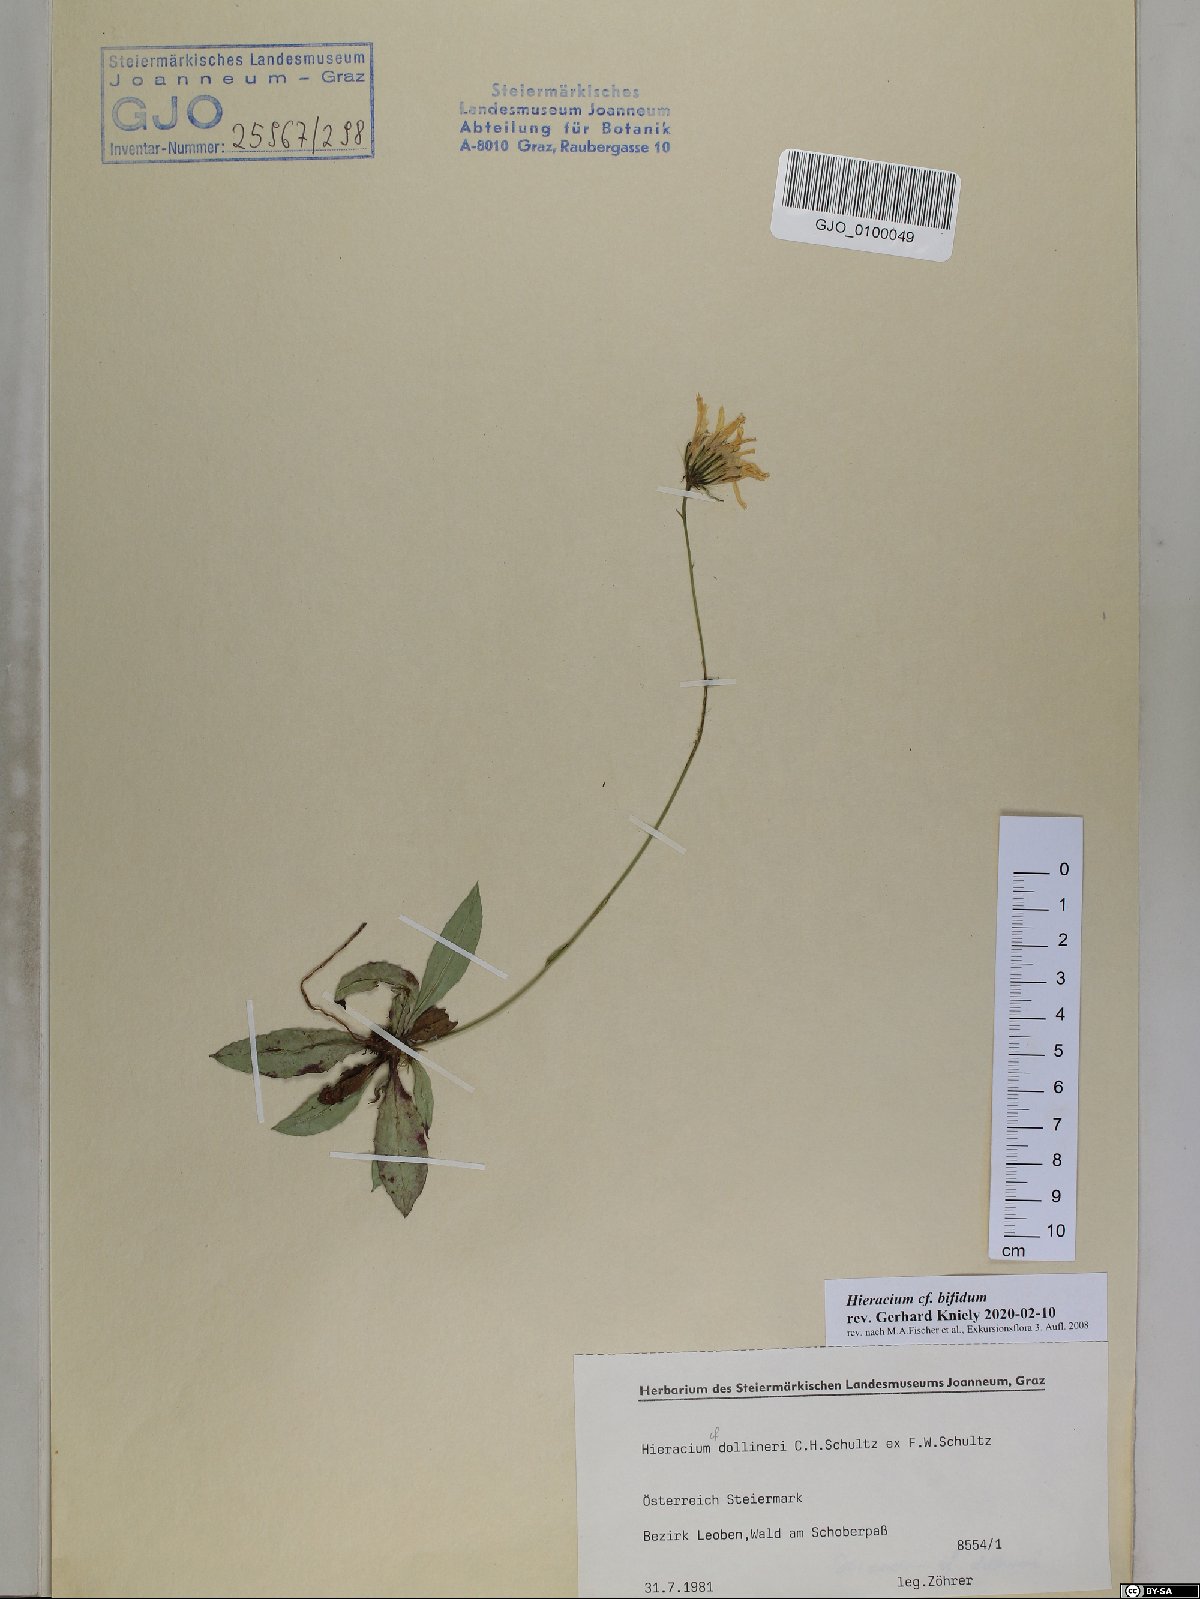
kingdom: Plantae
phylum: Tracheophyta
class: Magnoliopsida
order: Asterales
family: Asteraceae
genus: Hieracium
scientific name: Hieracium bifidum
